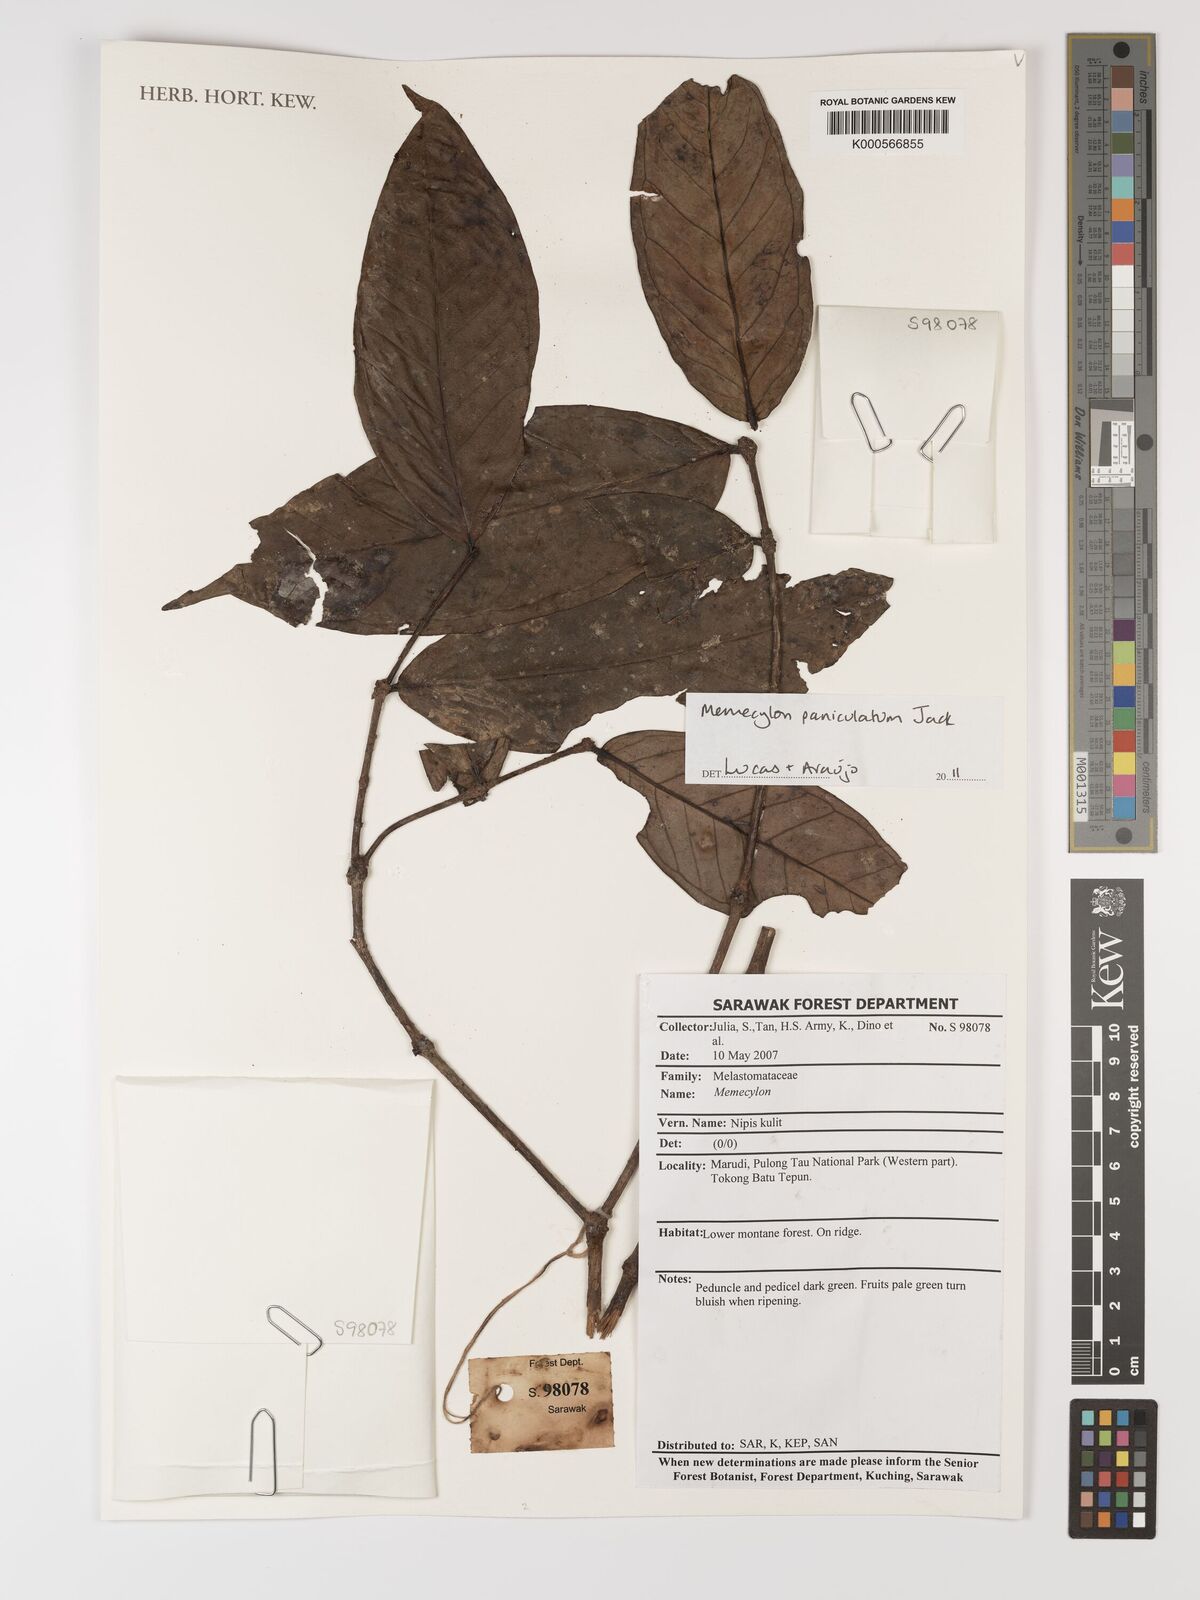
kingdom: Plantae
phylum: Tracheophyta
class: Magnoliopsida
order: Myrtales
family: Melastomataceae
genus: Memecylon
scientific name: Memecylon paniculatum
